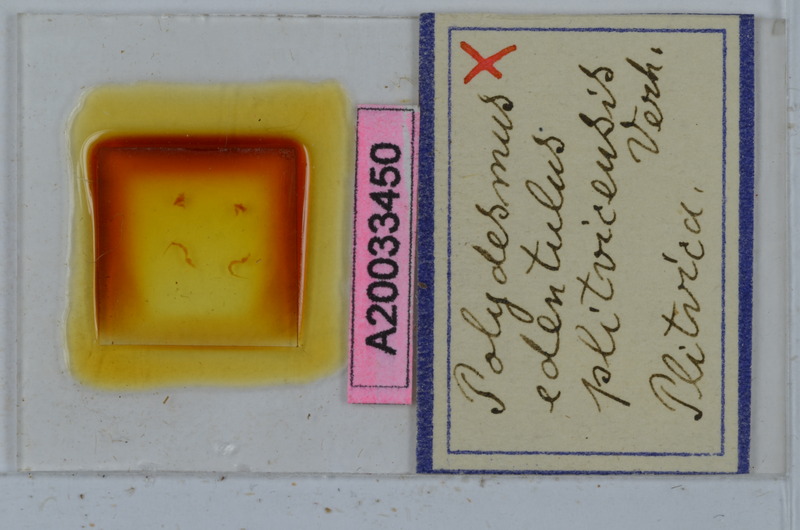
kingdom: Animalia
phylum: Arthropoda
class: Diplopoda
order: Polydesmida
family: Polydesmidae
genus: Polydesmus
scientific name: Polydesmus edentulus
